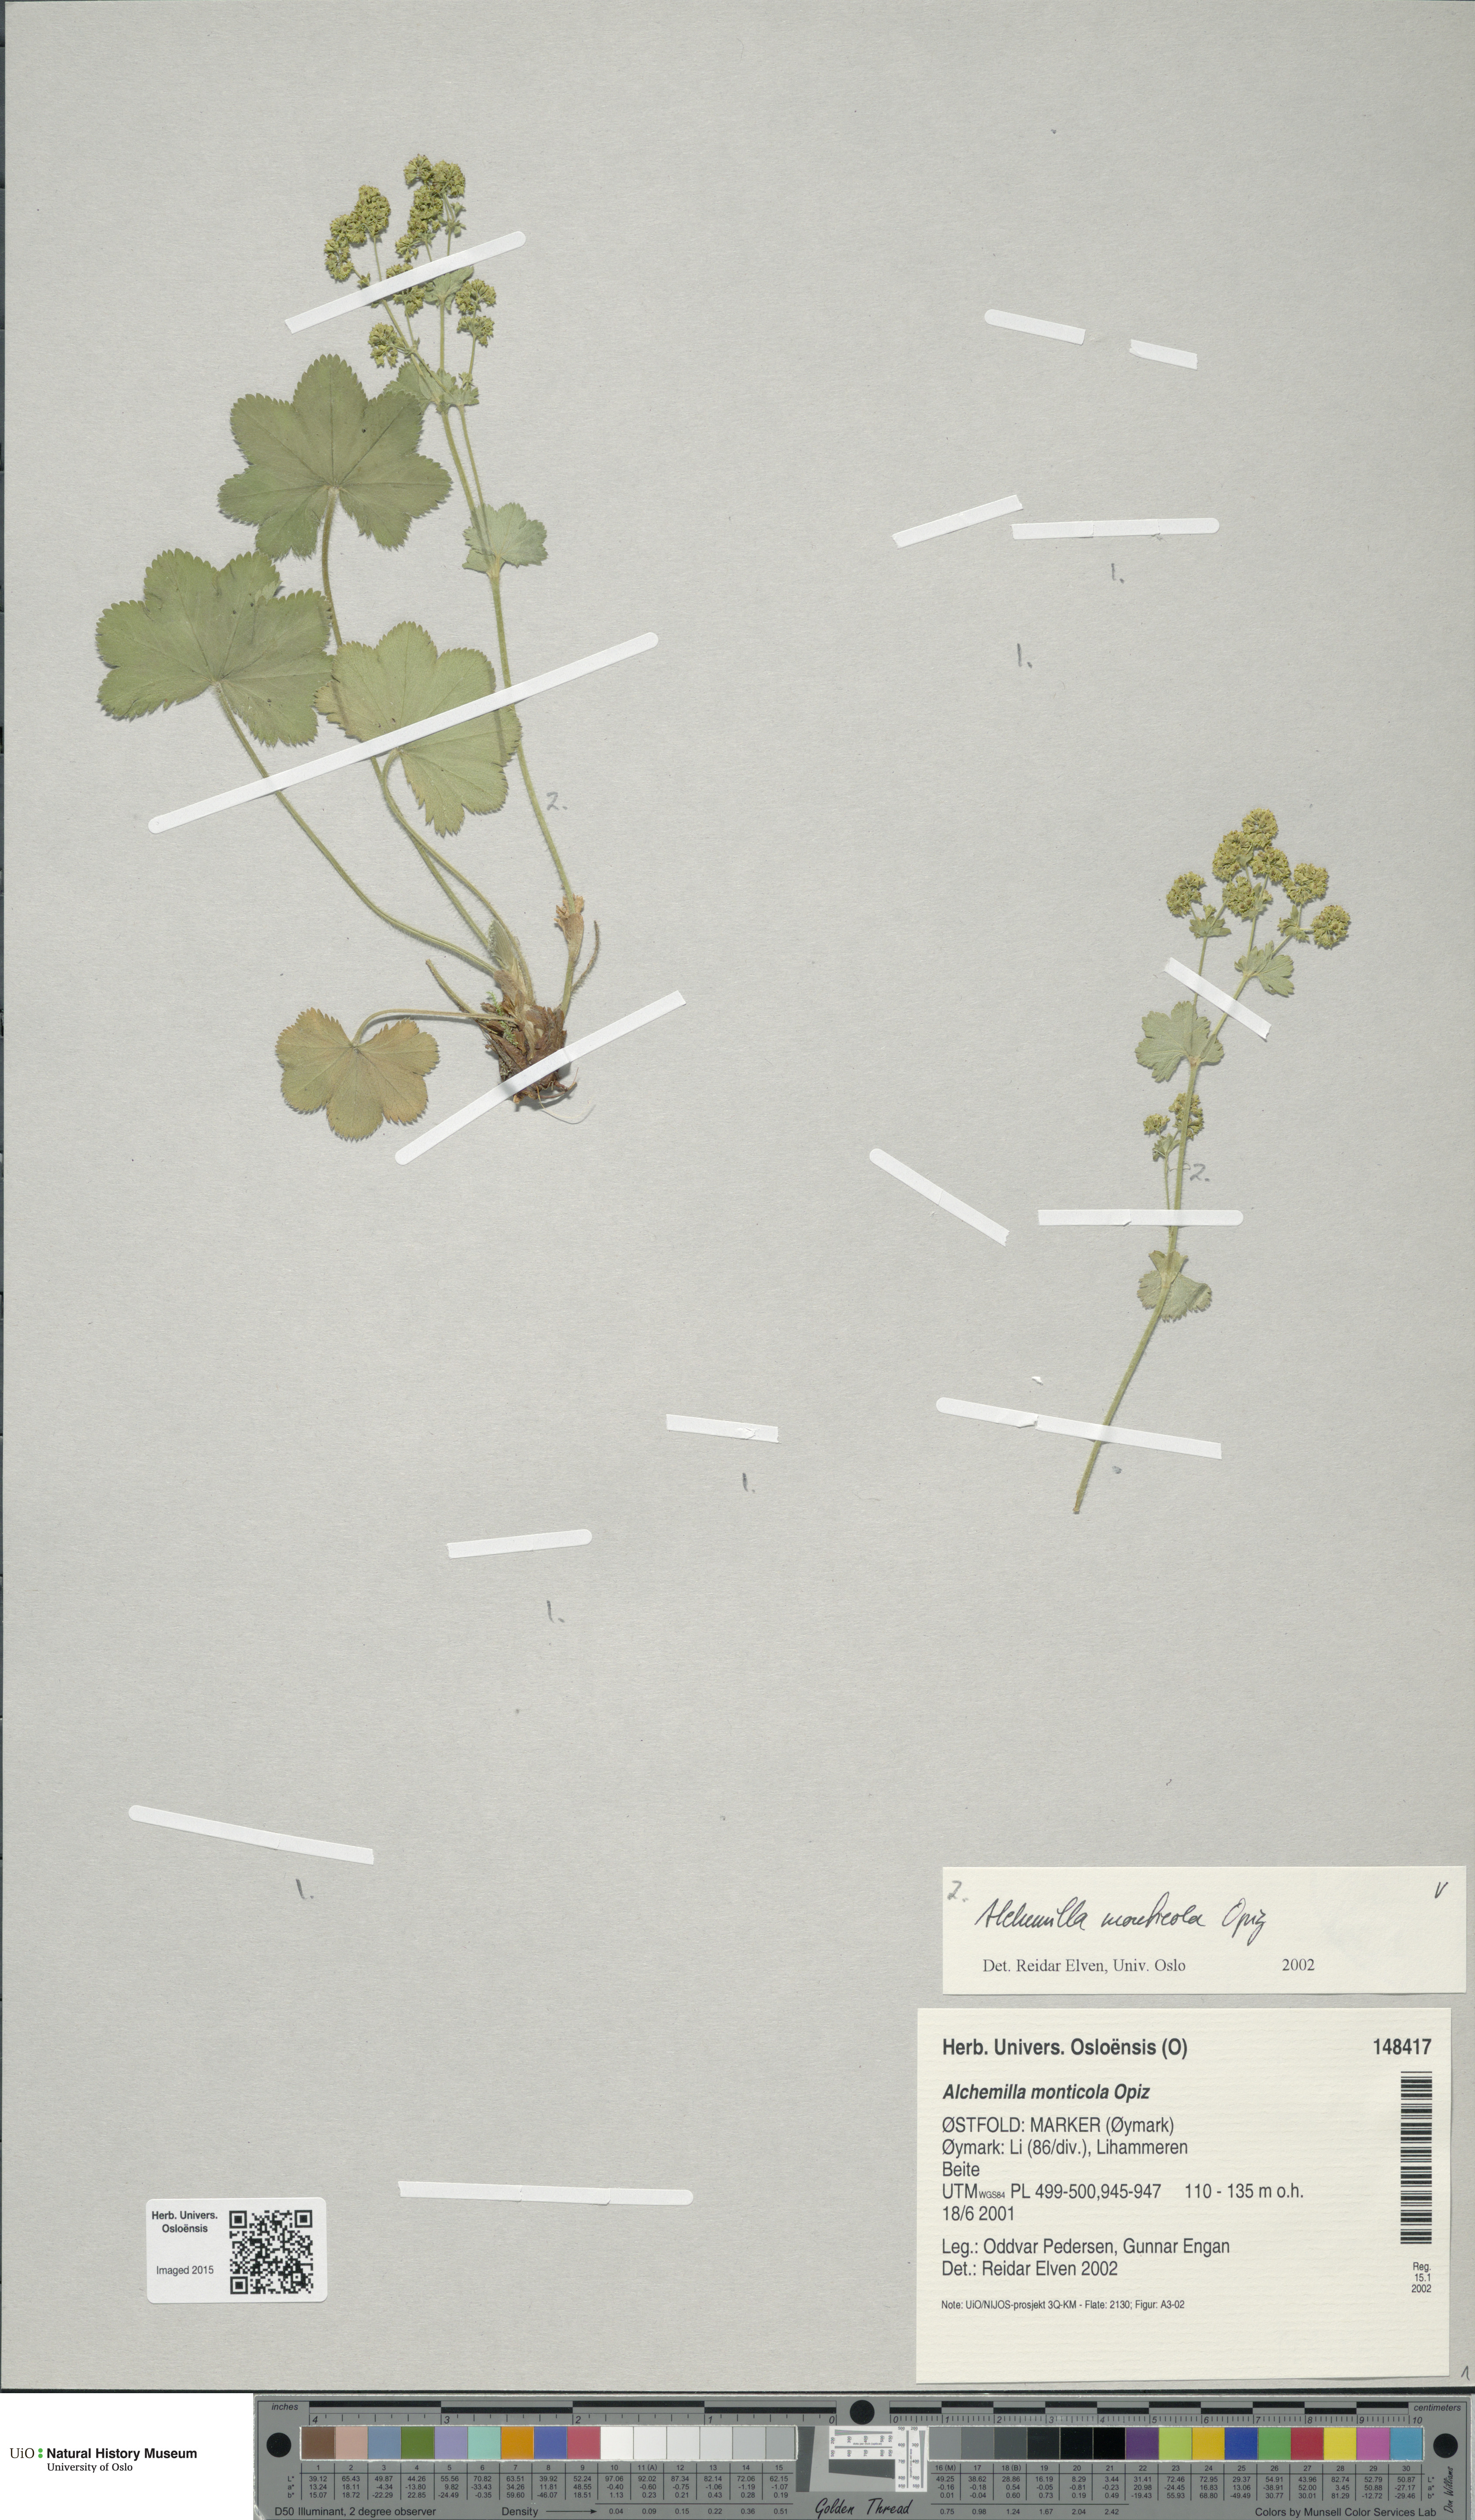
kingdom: Plantae
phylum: Tracheophyta
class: Magnoliopsida
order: Rosales
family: Rosaceae
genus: Alchemilla
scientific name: Alchemilla monticola
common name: Hairy lady's mantle
